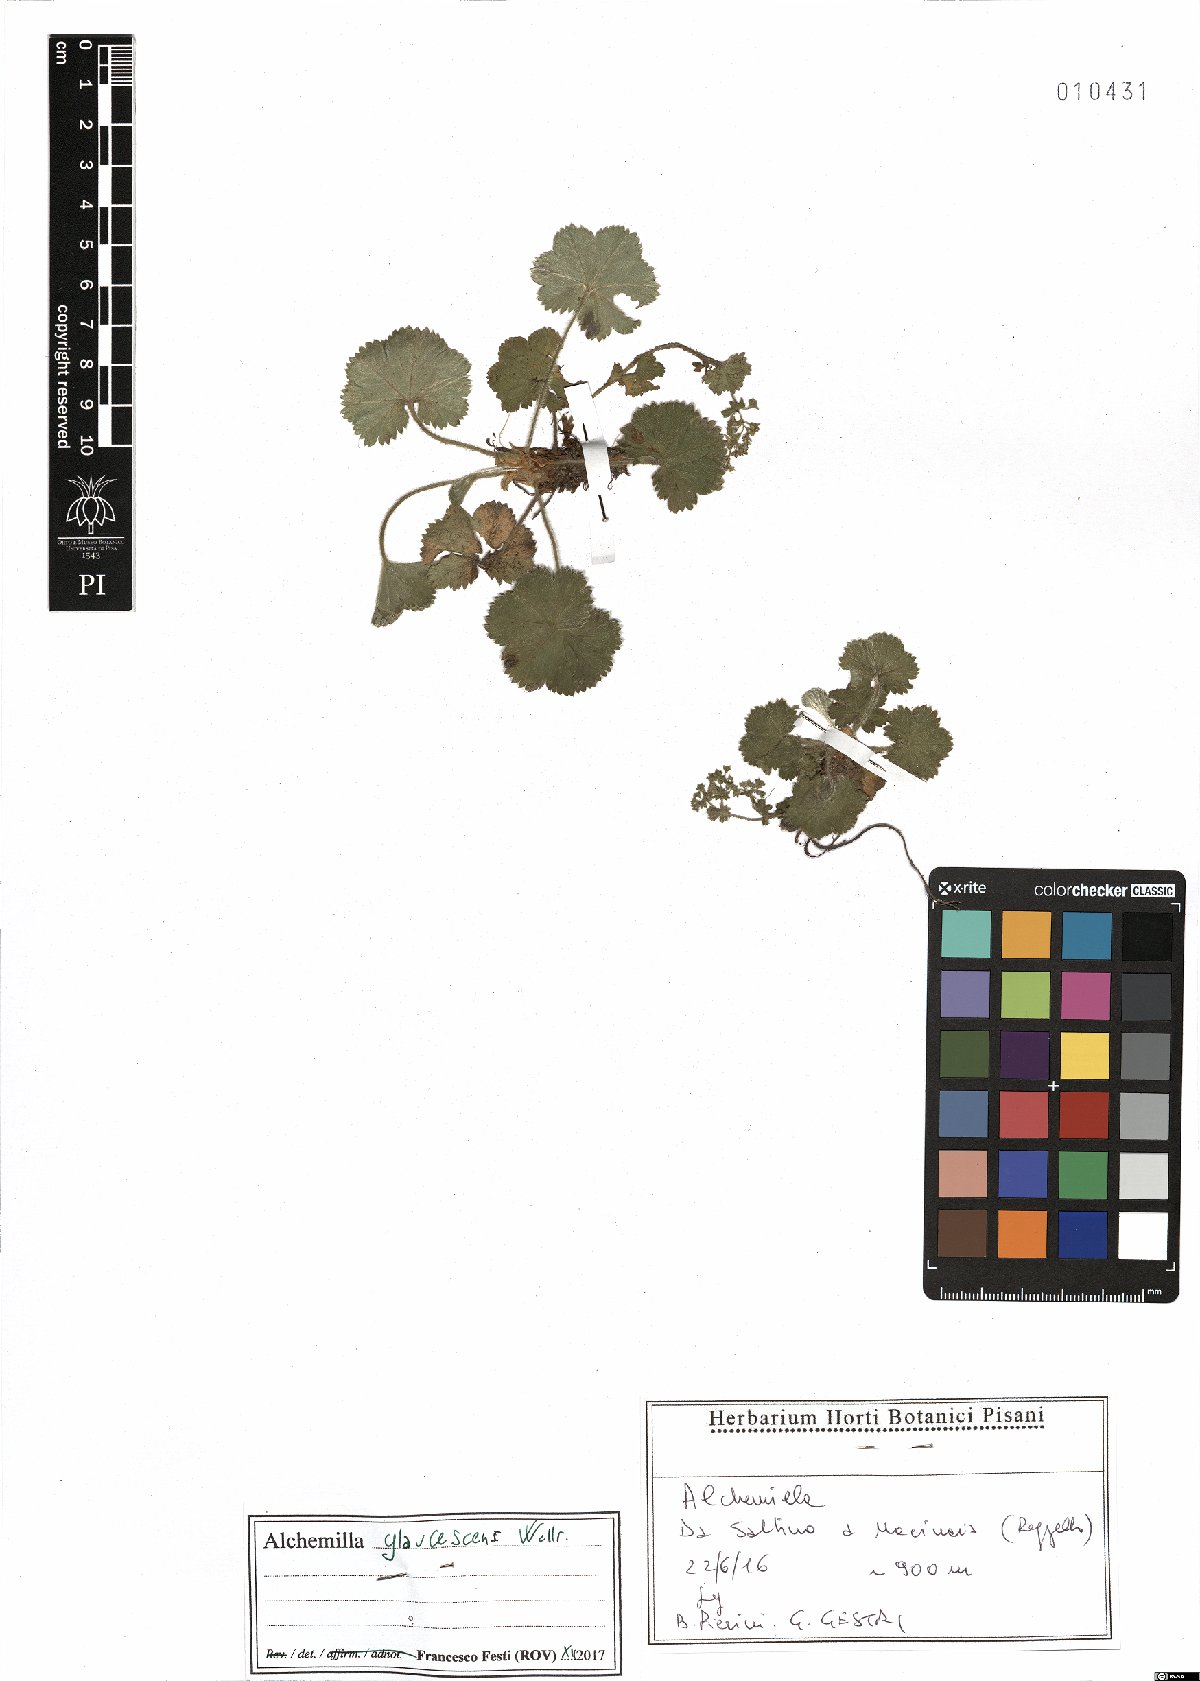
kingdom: Plantae
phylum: Tracheophyta
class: Magnoliopsida
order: Rosales
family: Rosaceae
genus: Alchemilla
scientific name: Alchemilla glaucescens
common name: Silky lady's mantle
